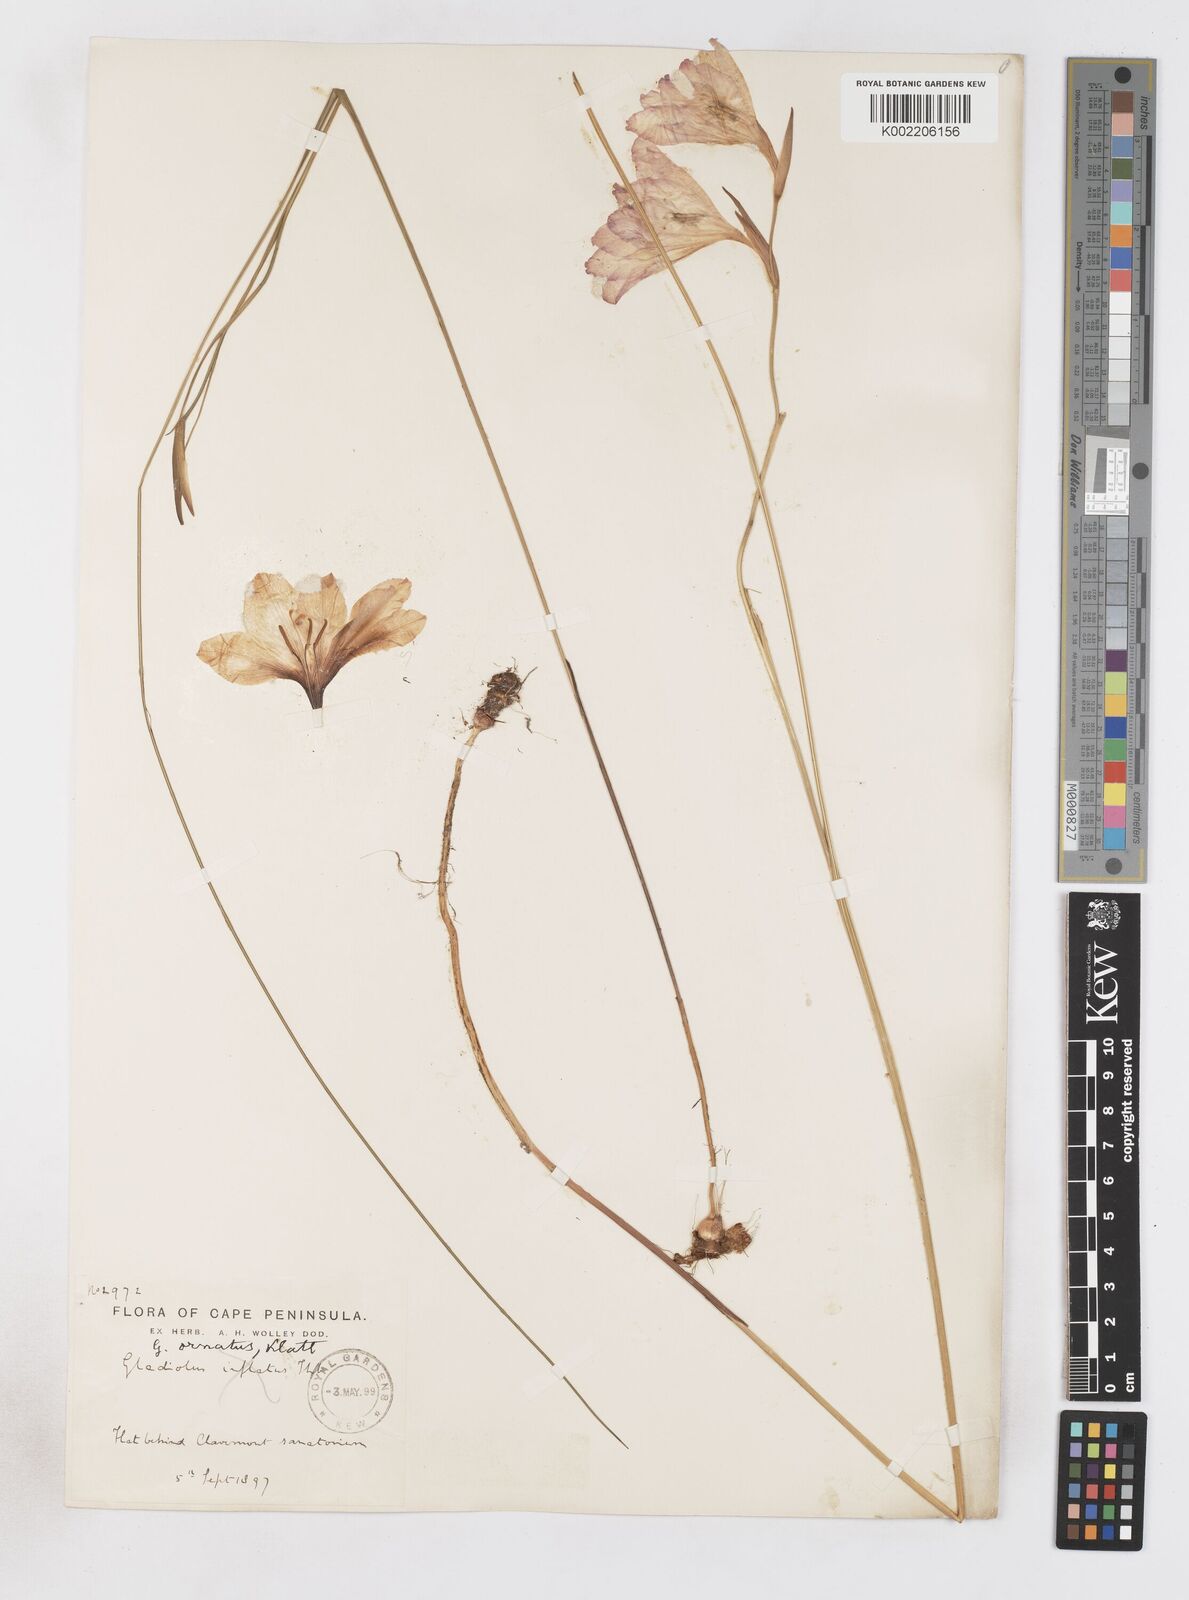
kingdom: Plantae
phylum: Tracheophyta
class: Liliopsida
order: Asparagales
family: Iridaceae
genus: Gladiolus
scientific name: Gladiolus ornatus
